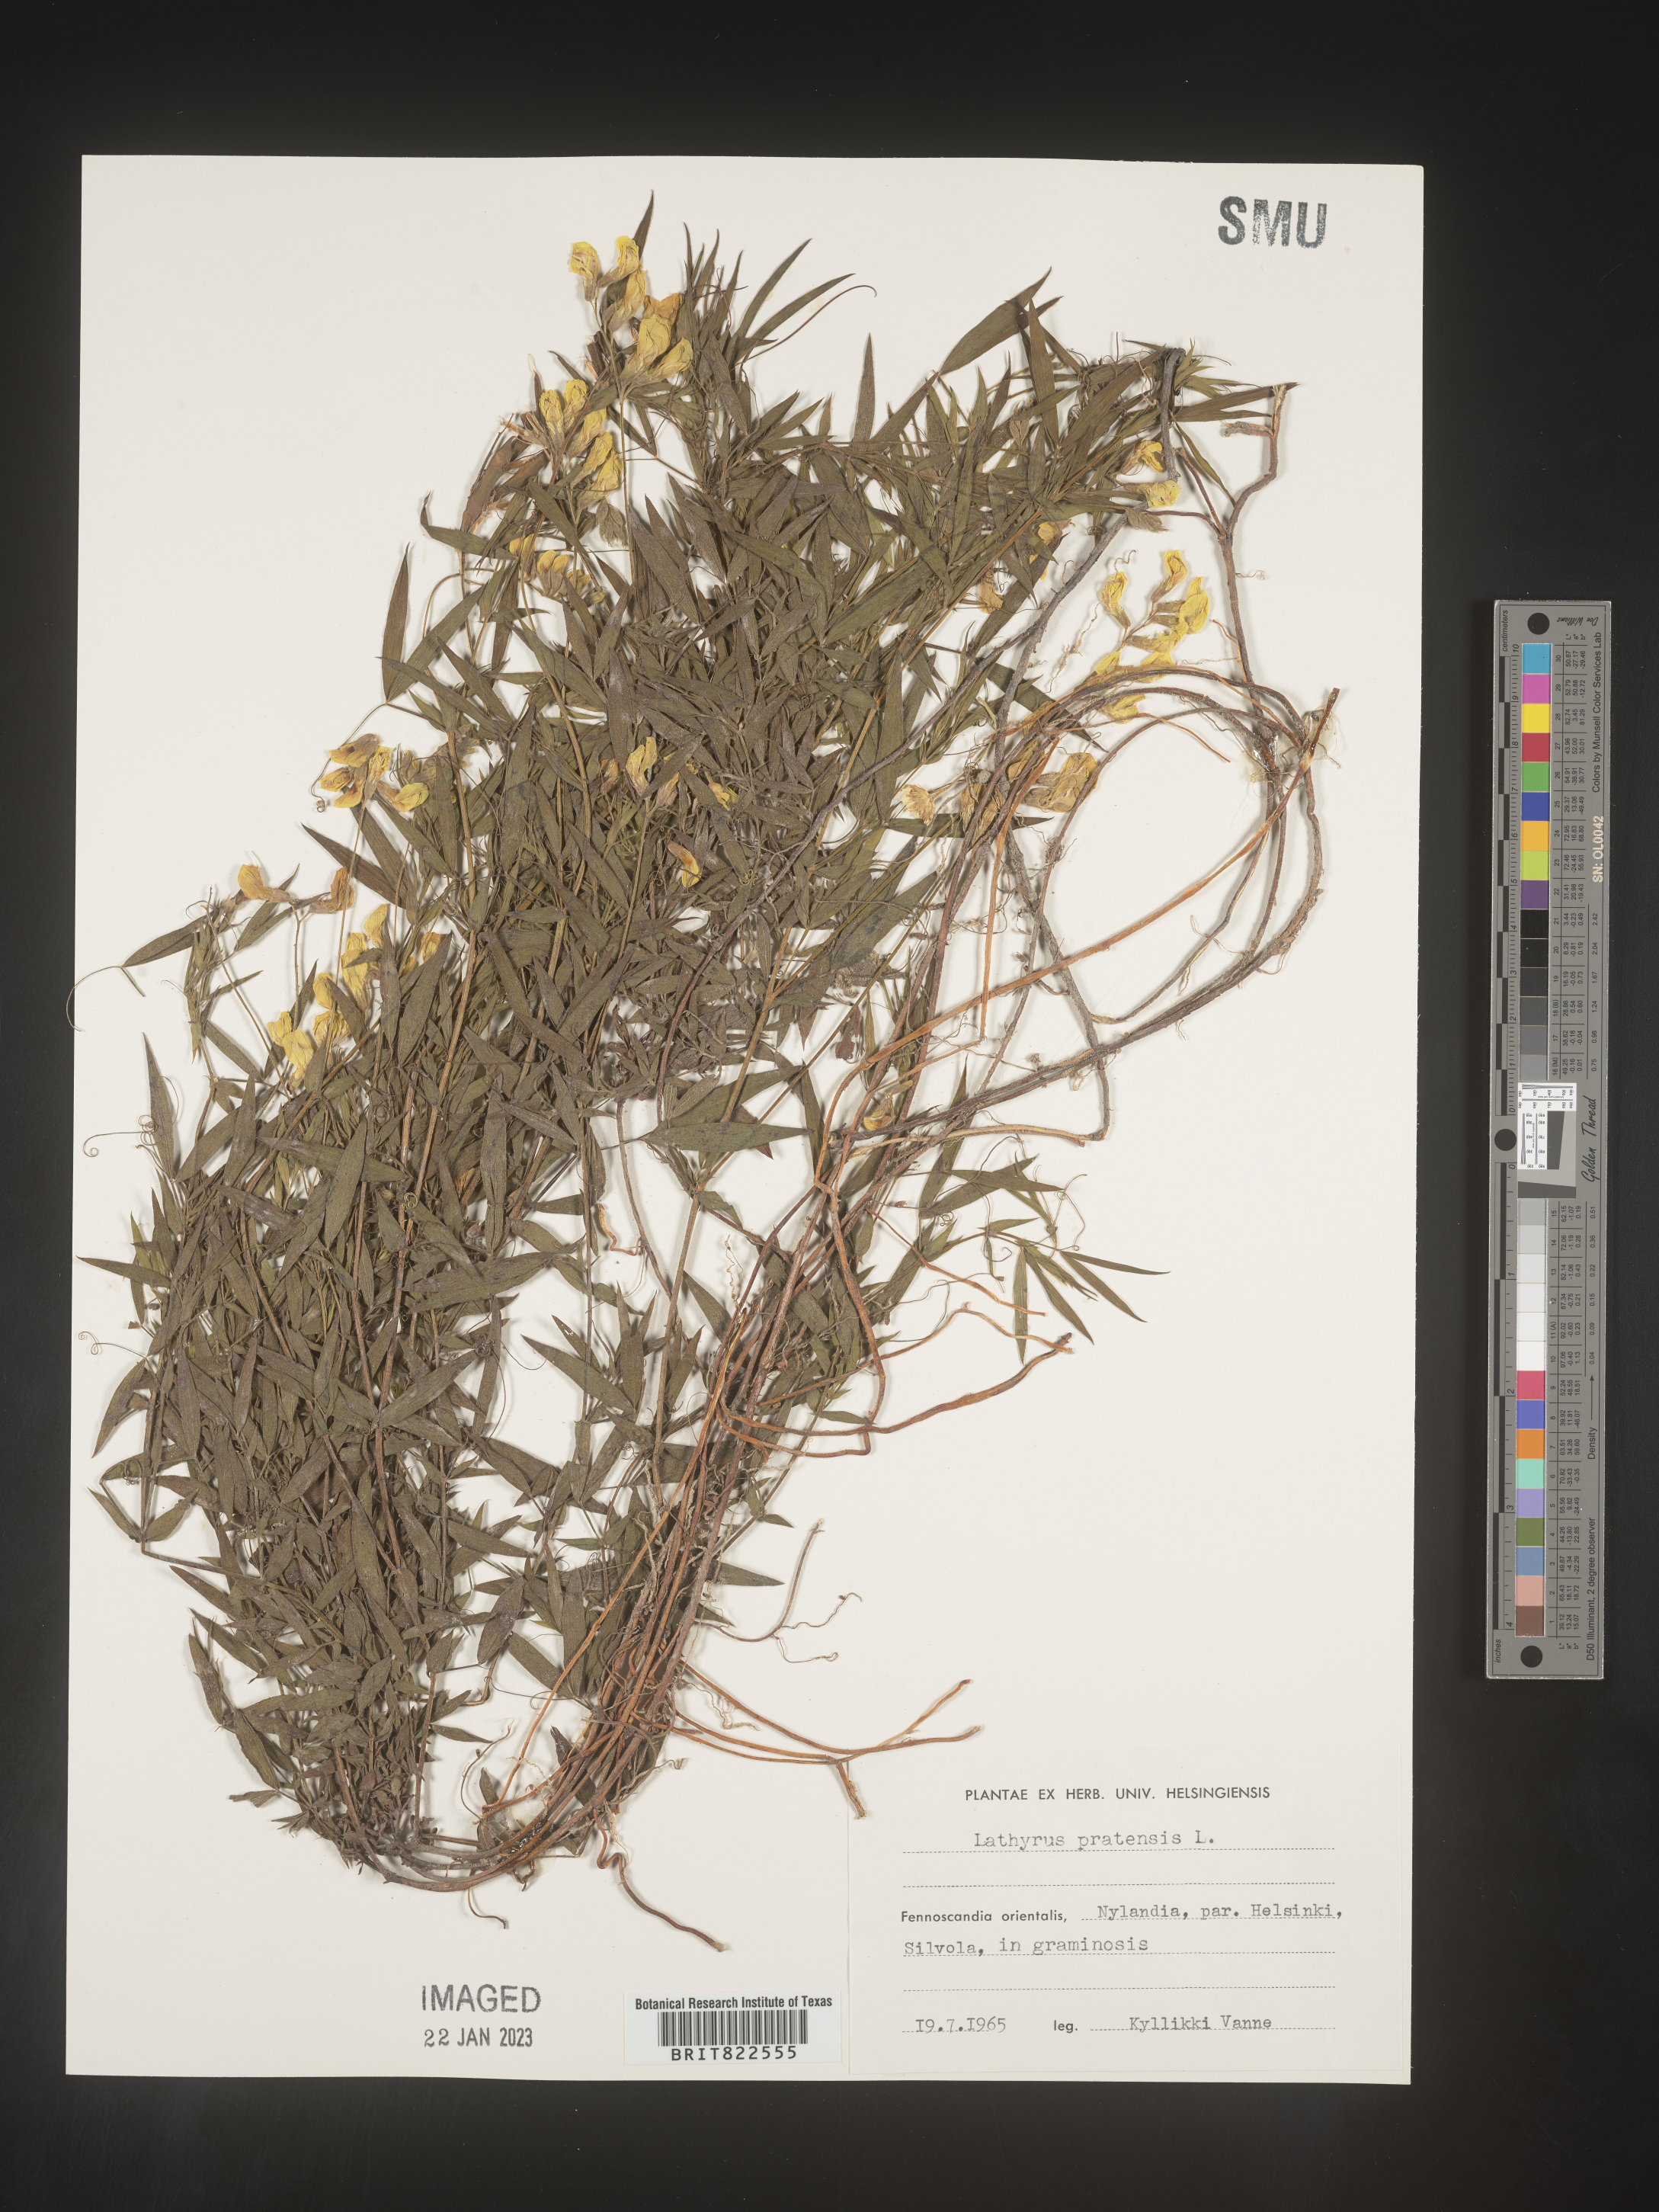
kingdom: Plantae
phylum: Tracheophyta
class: Magnoliopsida
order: Fabales
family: Fabaceae
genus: Lathyrus
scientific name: Lathyrus
